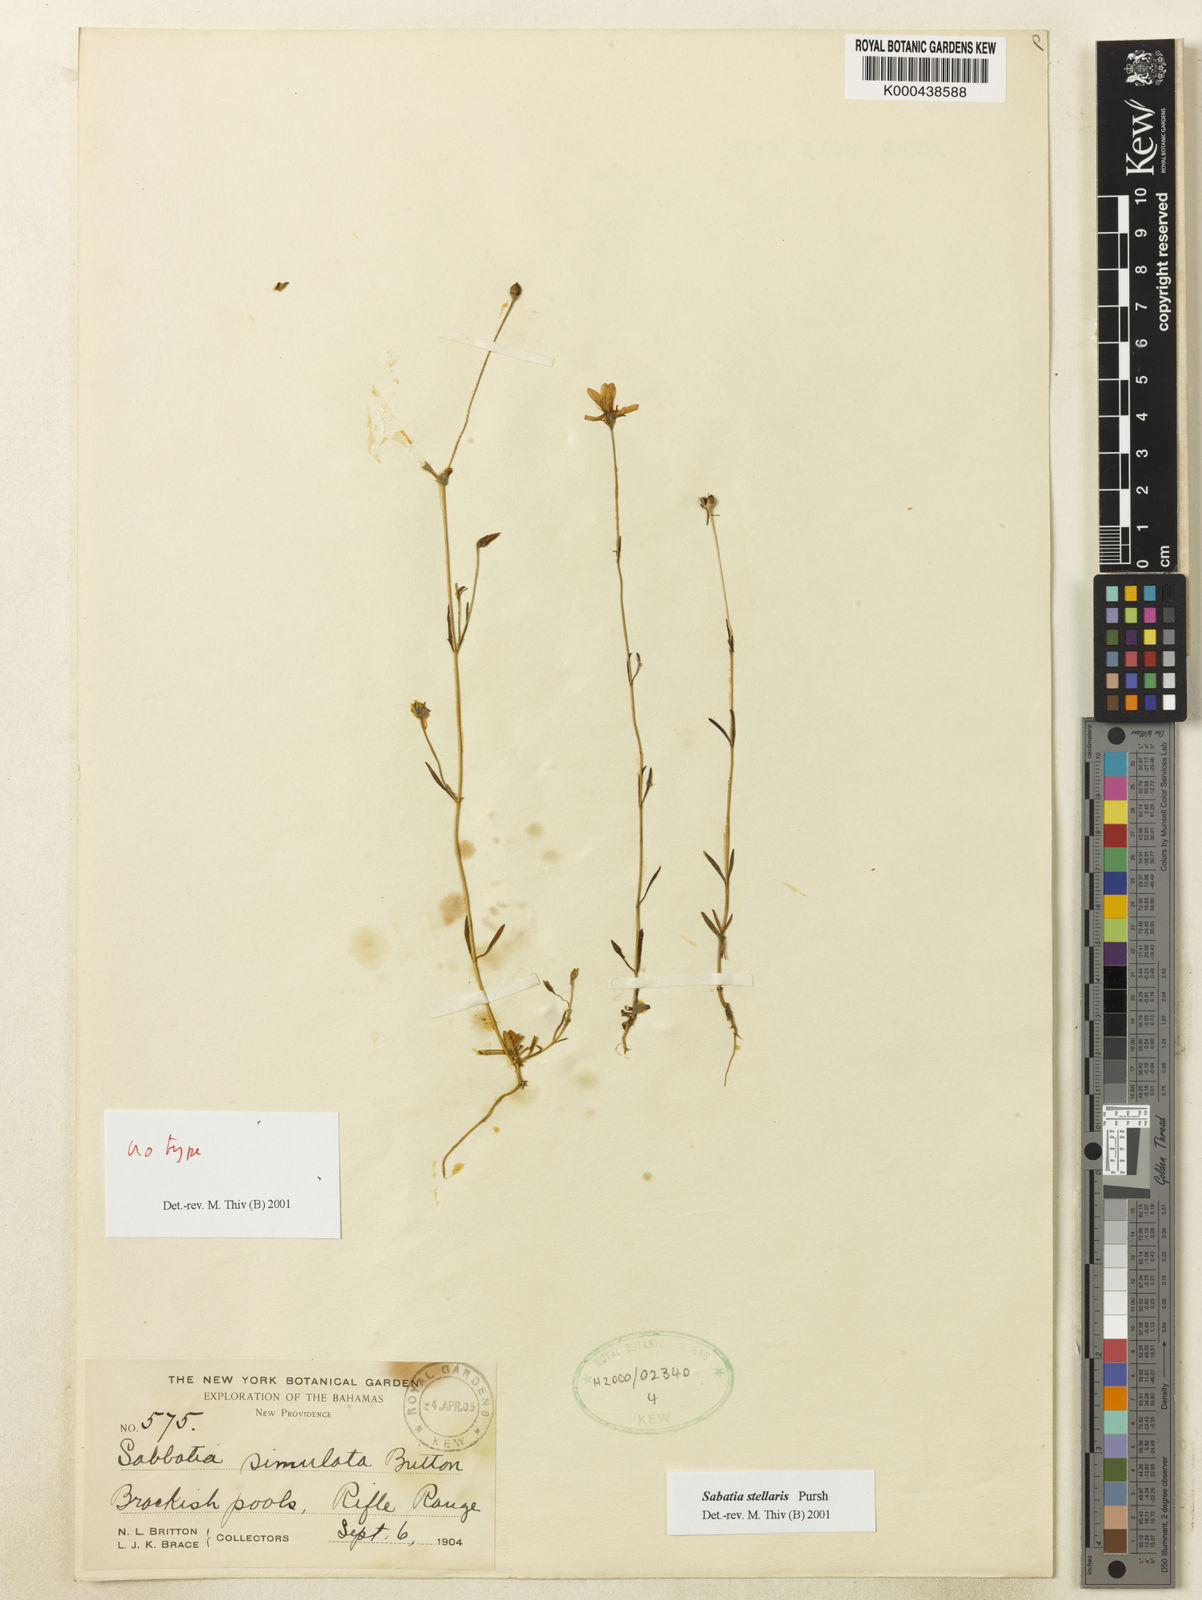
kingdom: Plantae
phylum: Tracheophyta
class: Magnoliopsida
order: Gentianales
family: Gentianaceae
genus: Sabatia
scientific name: Sabatia stellaris
